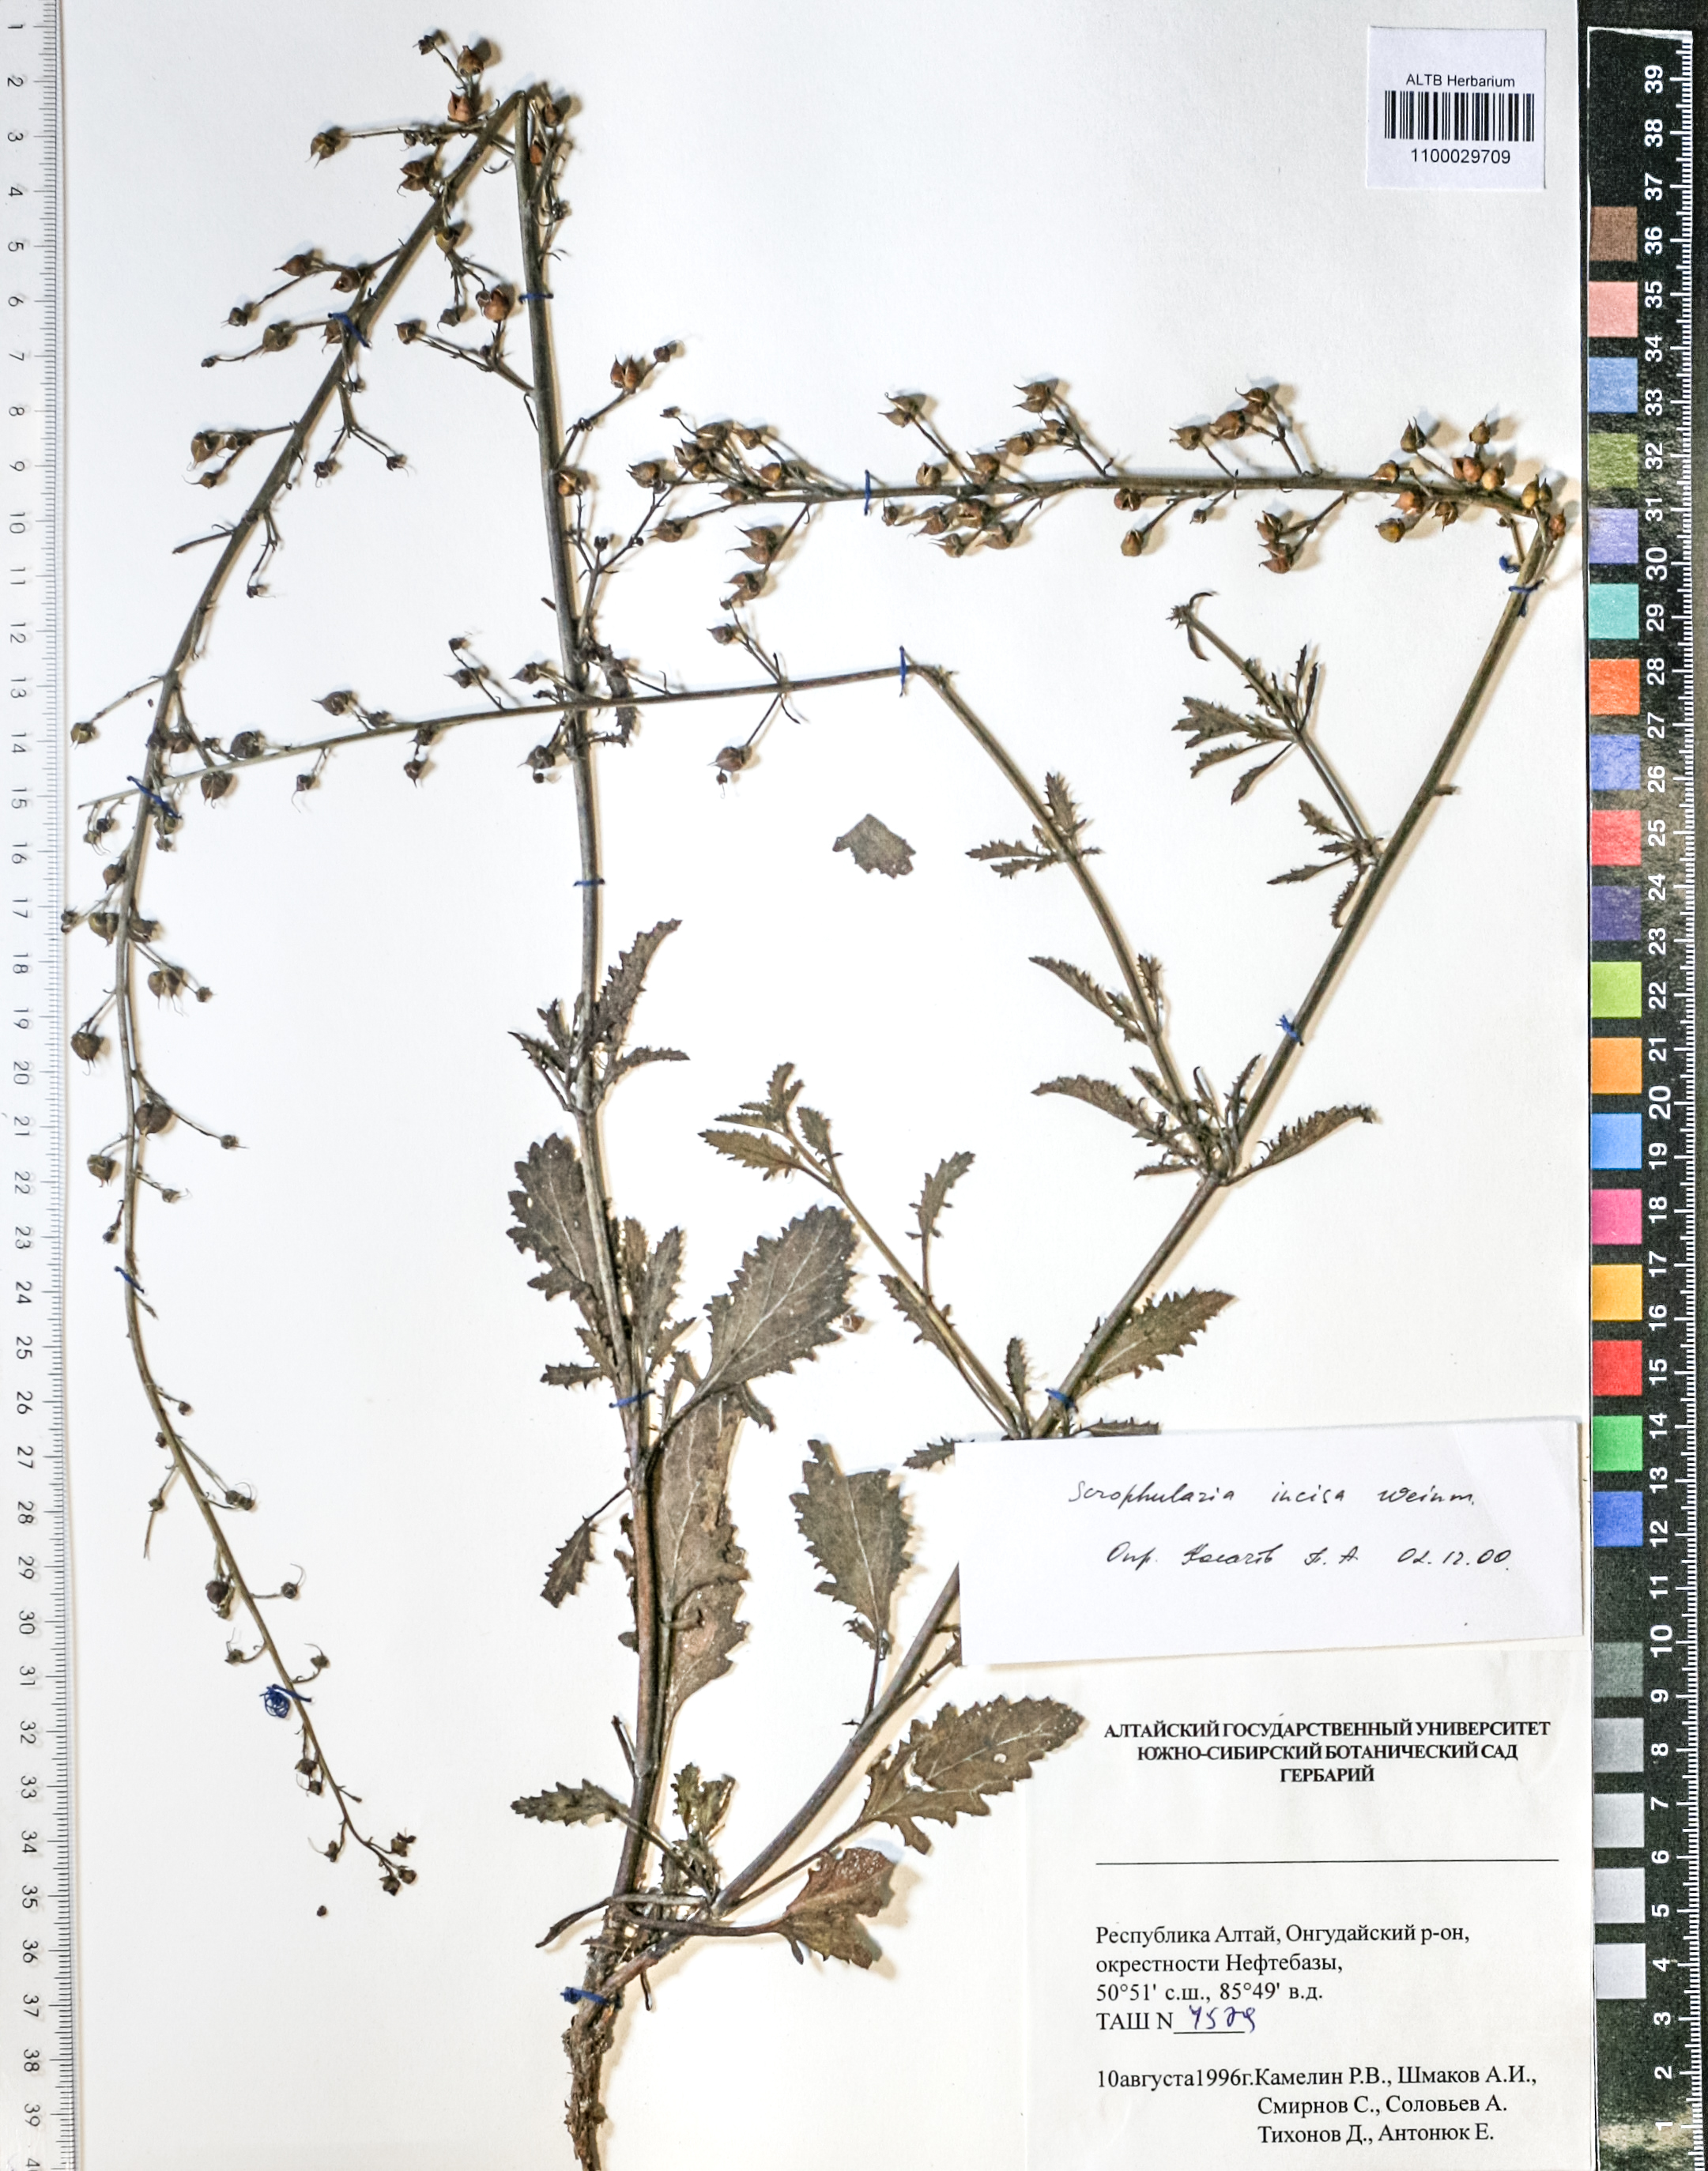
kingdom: Plantae
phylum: Tracheophyta
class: Magnoliopsida
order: Lamiales
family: Scrophulariaceae
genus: Scrophularia
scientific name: Scrophularia incisa
